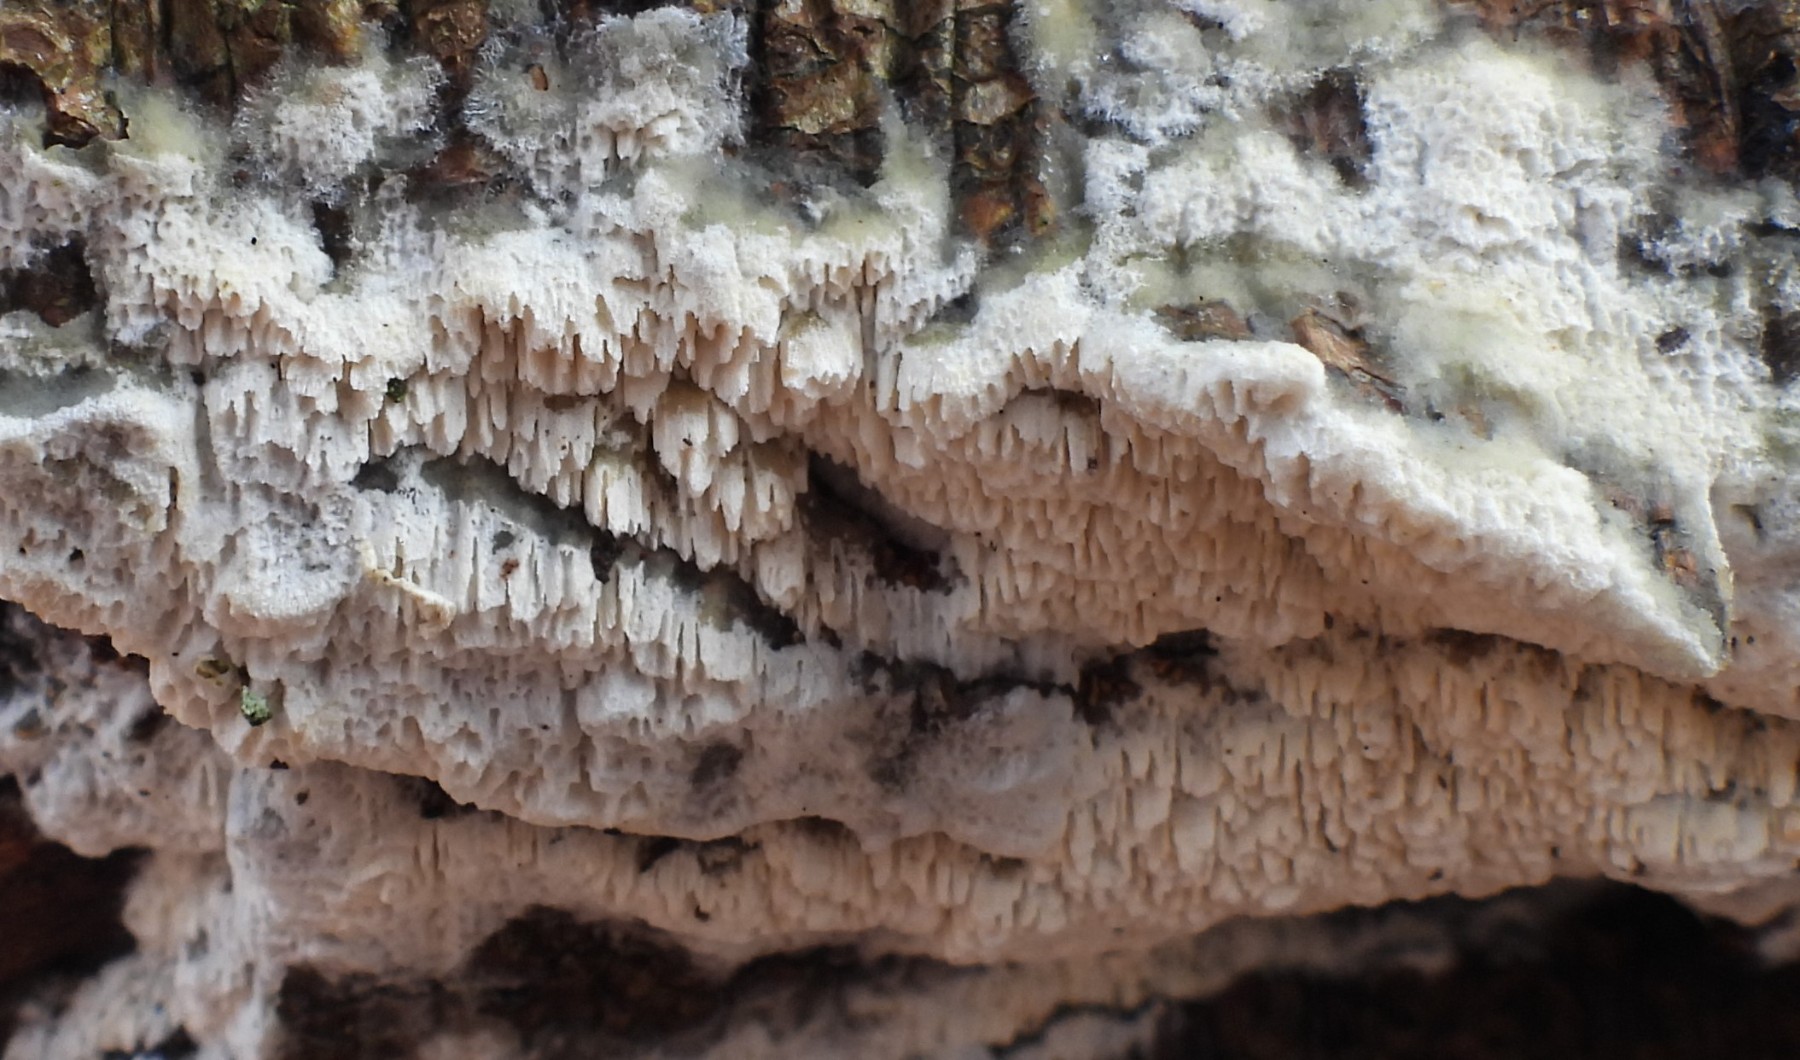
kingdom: Fungi
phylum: Basidiomycota
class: Agaricomycetes
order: Hymenochaetales
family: Schizoporaceae
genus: Schizopora
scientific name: Schizopora paradoxa
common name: hvid tandsvamp
